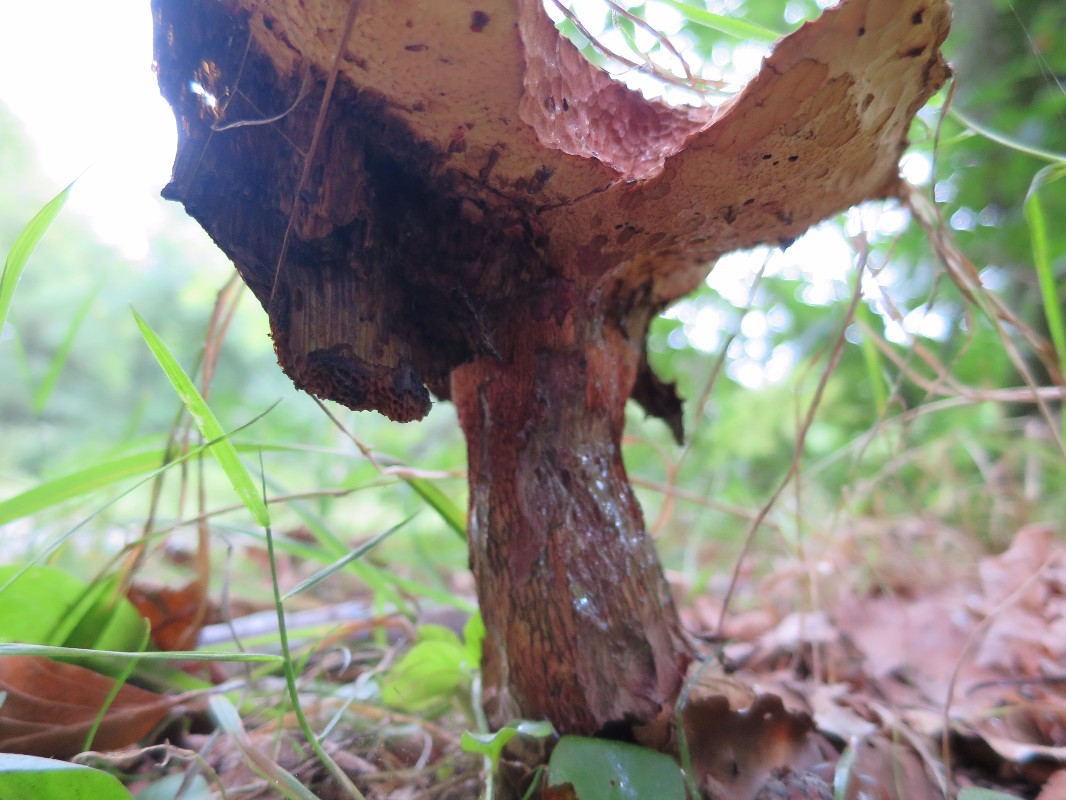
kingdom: Fungi
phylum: Basidiomycota
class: Agaricomycetes
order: Boletales
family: Boletaceae
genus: Suillellus
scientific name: Suillellus luridus
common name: netstokket indigorørhat
